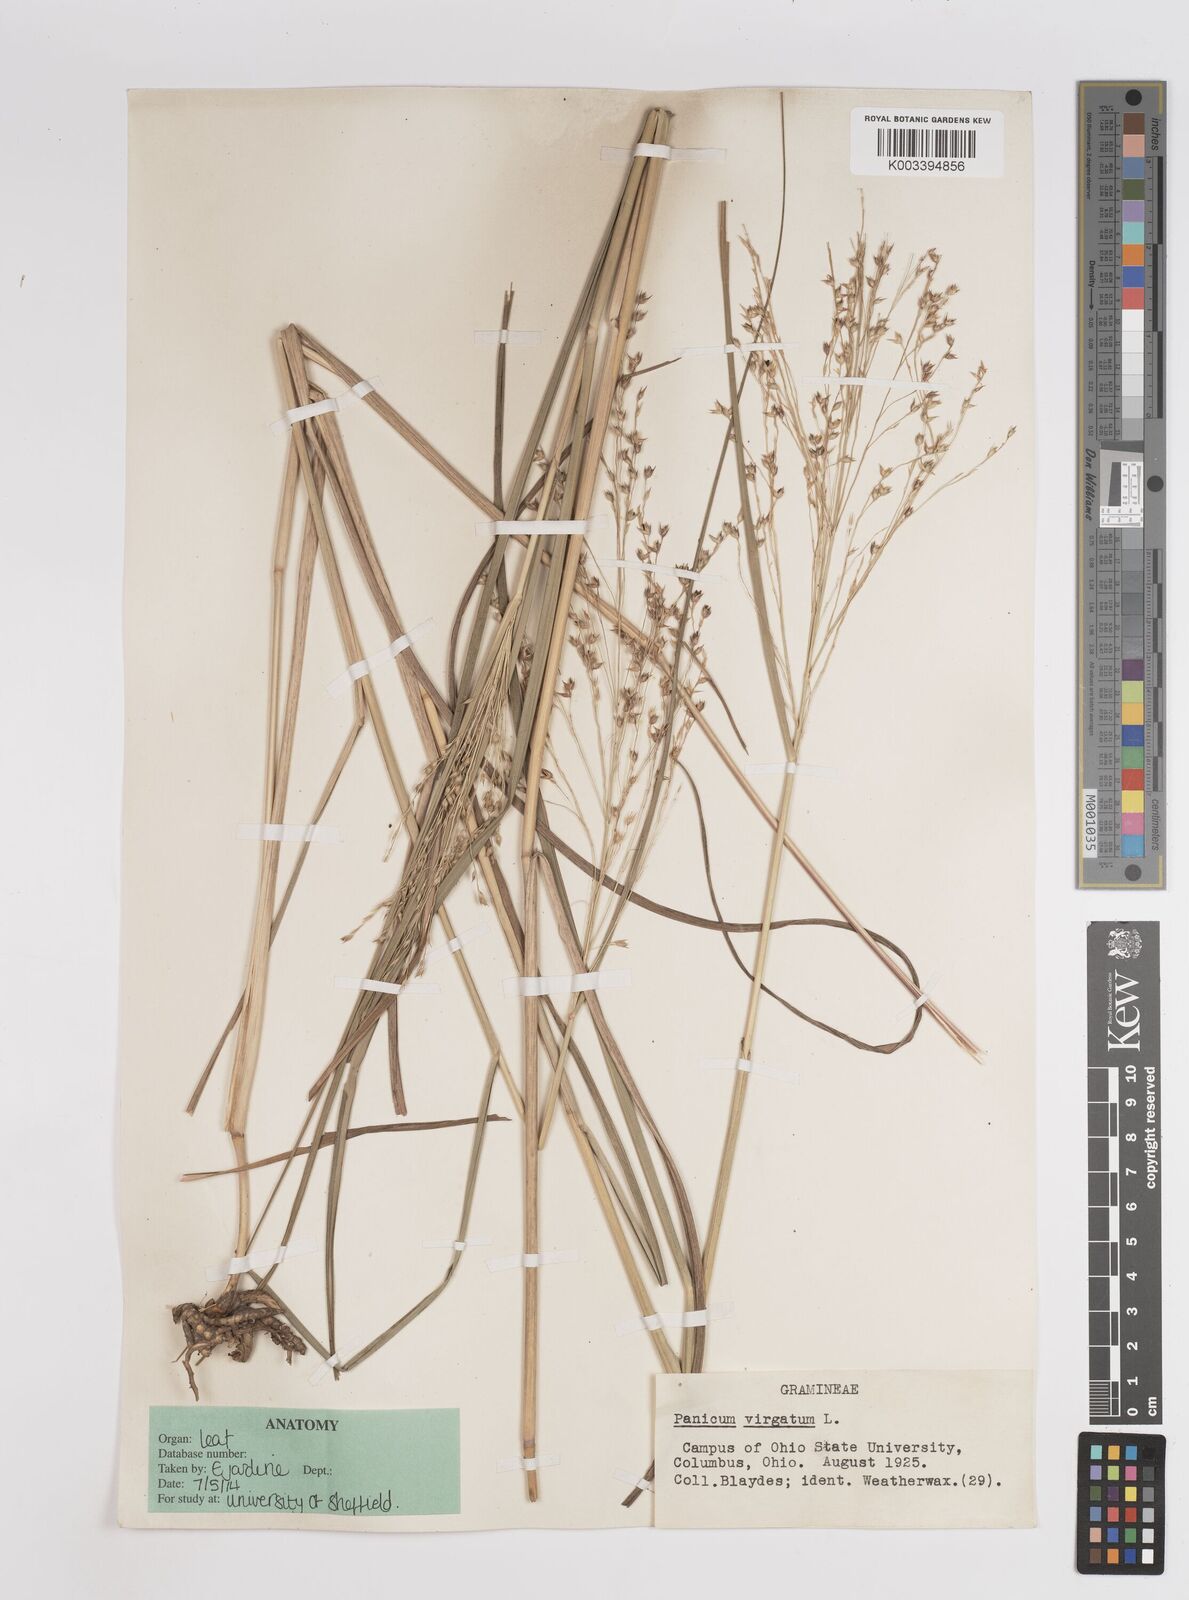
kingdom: Plantae
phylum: Tracheophyta
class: Liliopsida
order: Poales
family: Poaceae
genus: Panicum
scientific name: Panicum virgatum
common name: Switchgrass
